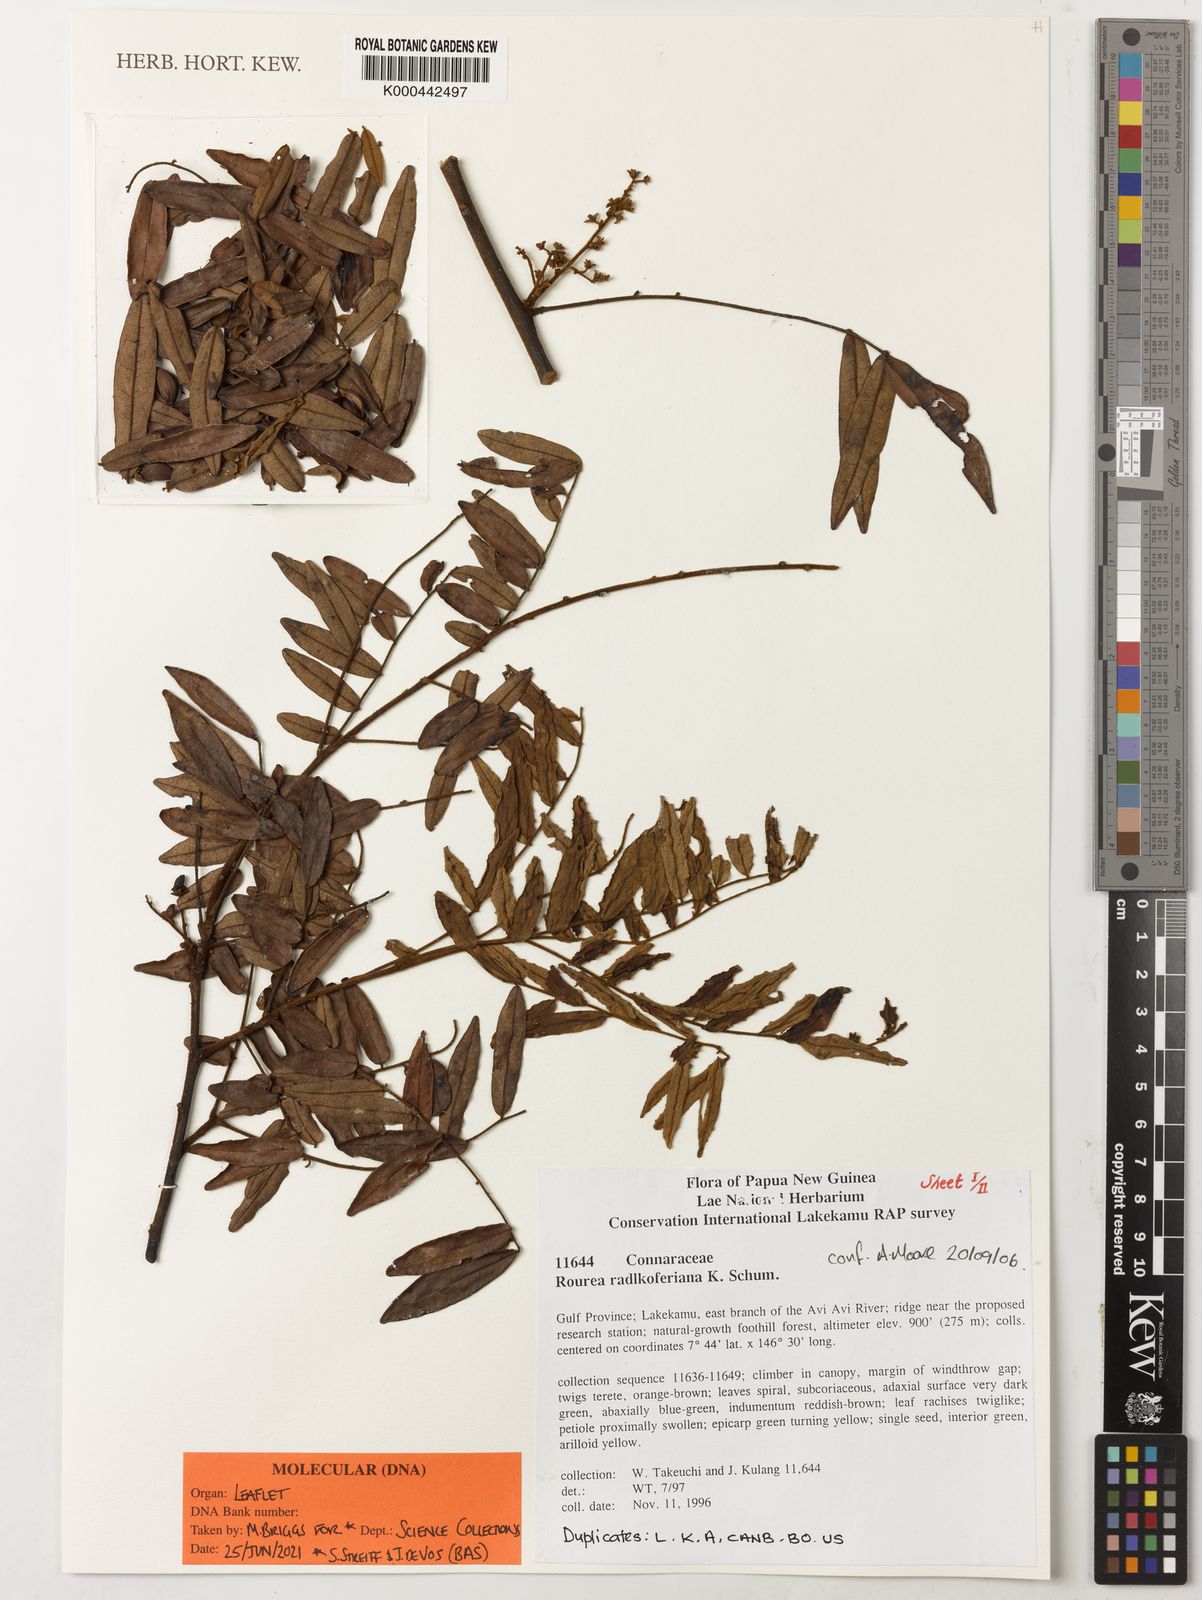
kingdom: Plantae
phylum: Tracheophyta
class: Magnoliopsida
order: Oxalidales
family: Connaraceae
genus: Rourea
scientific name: Rourea radlkoferiana
